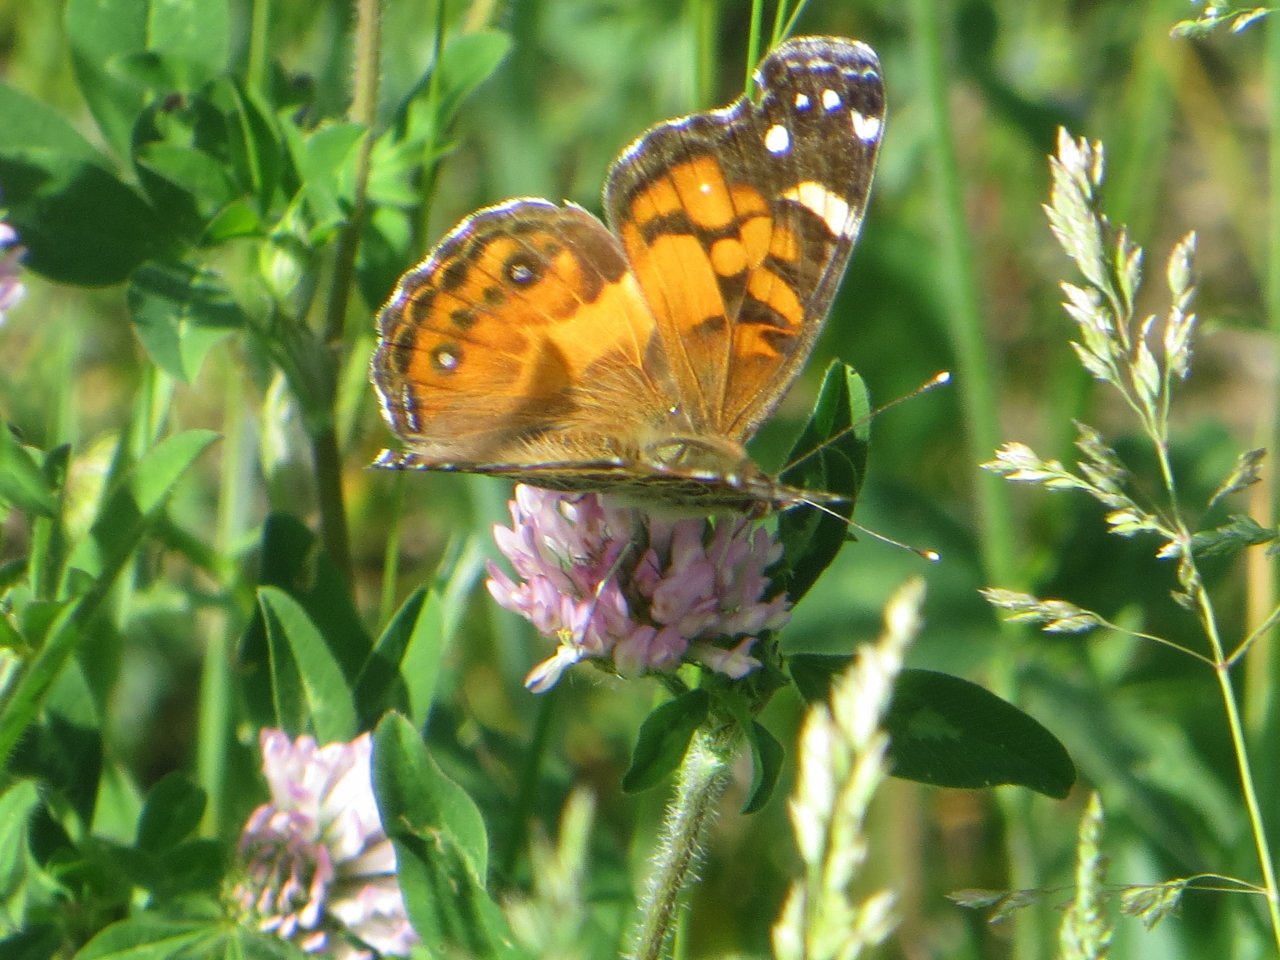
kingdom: Animalia
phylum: Arthropoda
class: Insecta
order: Lepidoptera
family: Nymphalidae
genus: Vanessa
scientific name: Vanessa virginiensis
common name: American Lady
